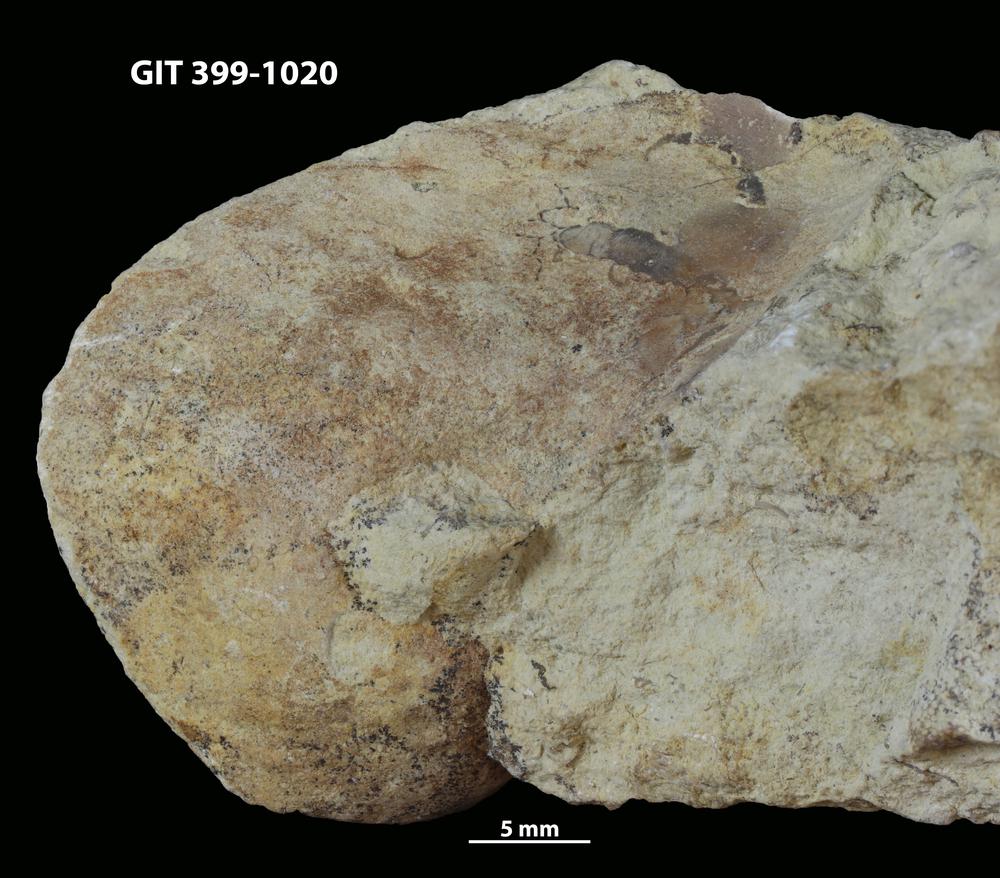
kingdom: Animalia
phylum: Mollusca
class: Gastropoda
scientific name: Gastropoda
